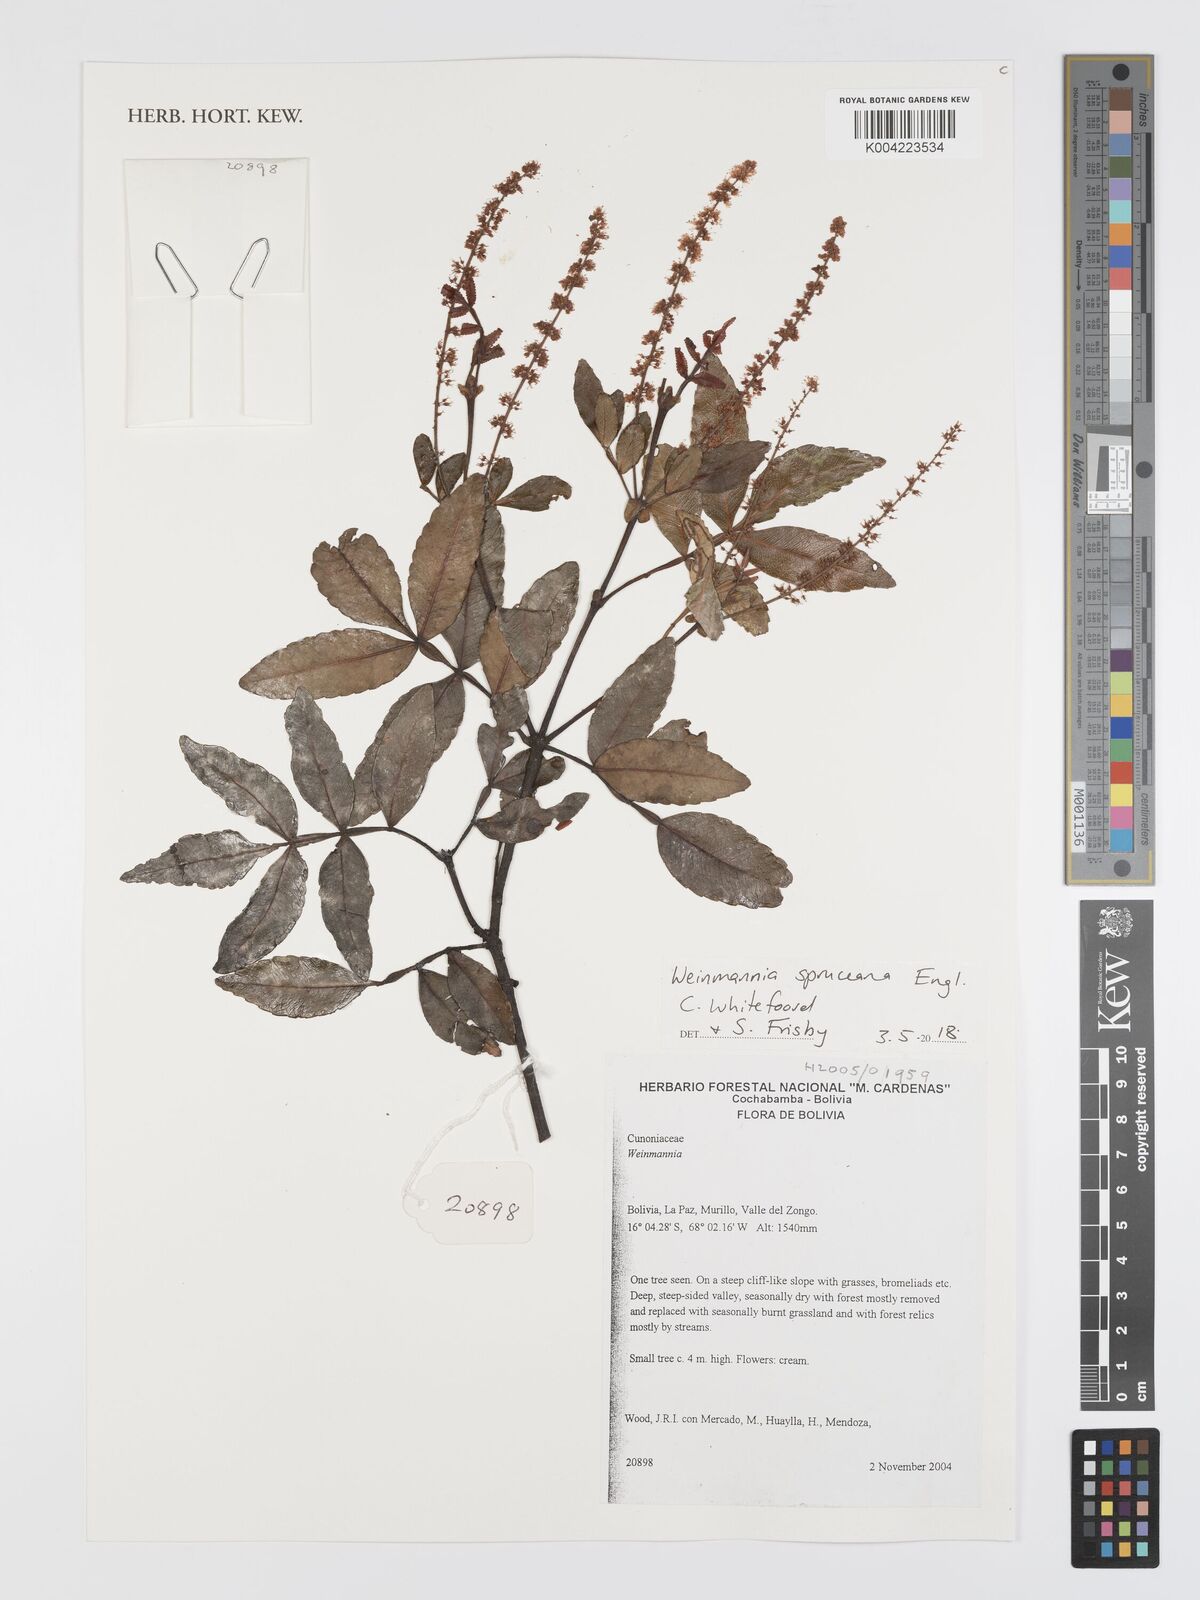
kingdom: Plantae
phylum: Tracheophyta
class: Magnoliopsida
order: Oxalidales
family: Cunoniaceae
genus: Weinmannia
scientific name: Weinmannia spruceana
